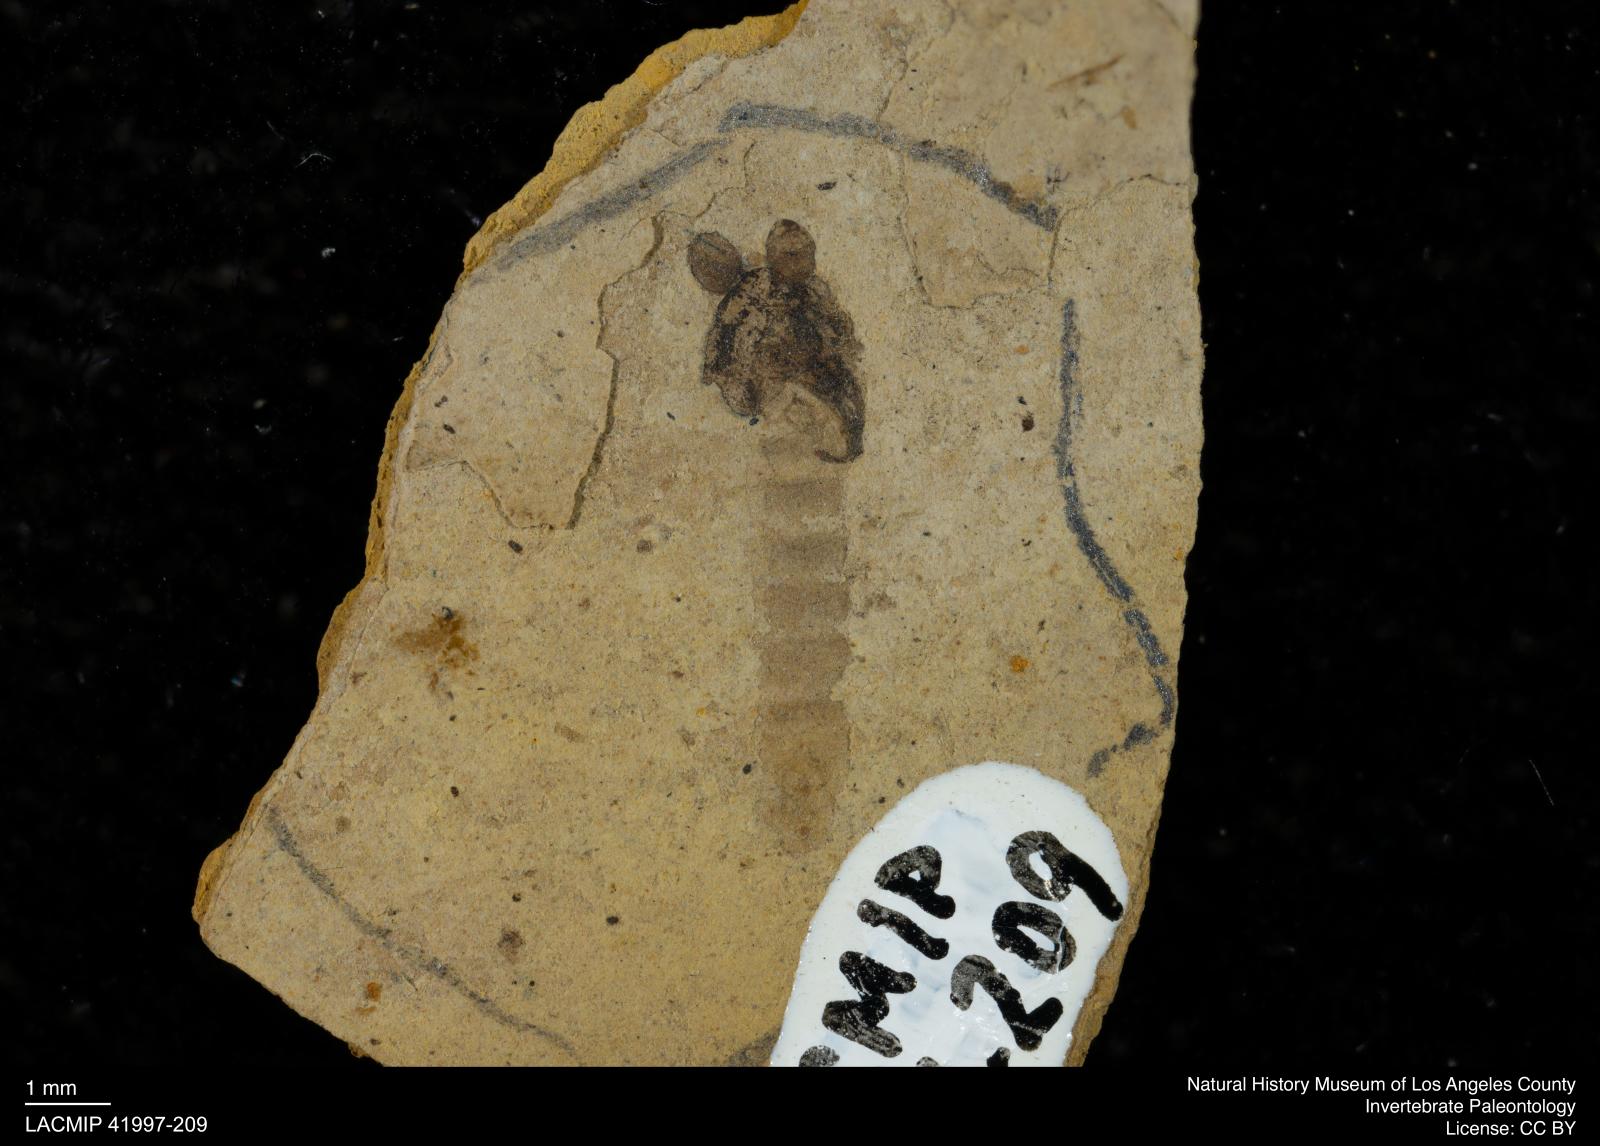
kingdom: Animalia
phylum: Arthropoda
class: Insecta
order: Diptera
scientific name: Diptera
